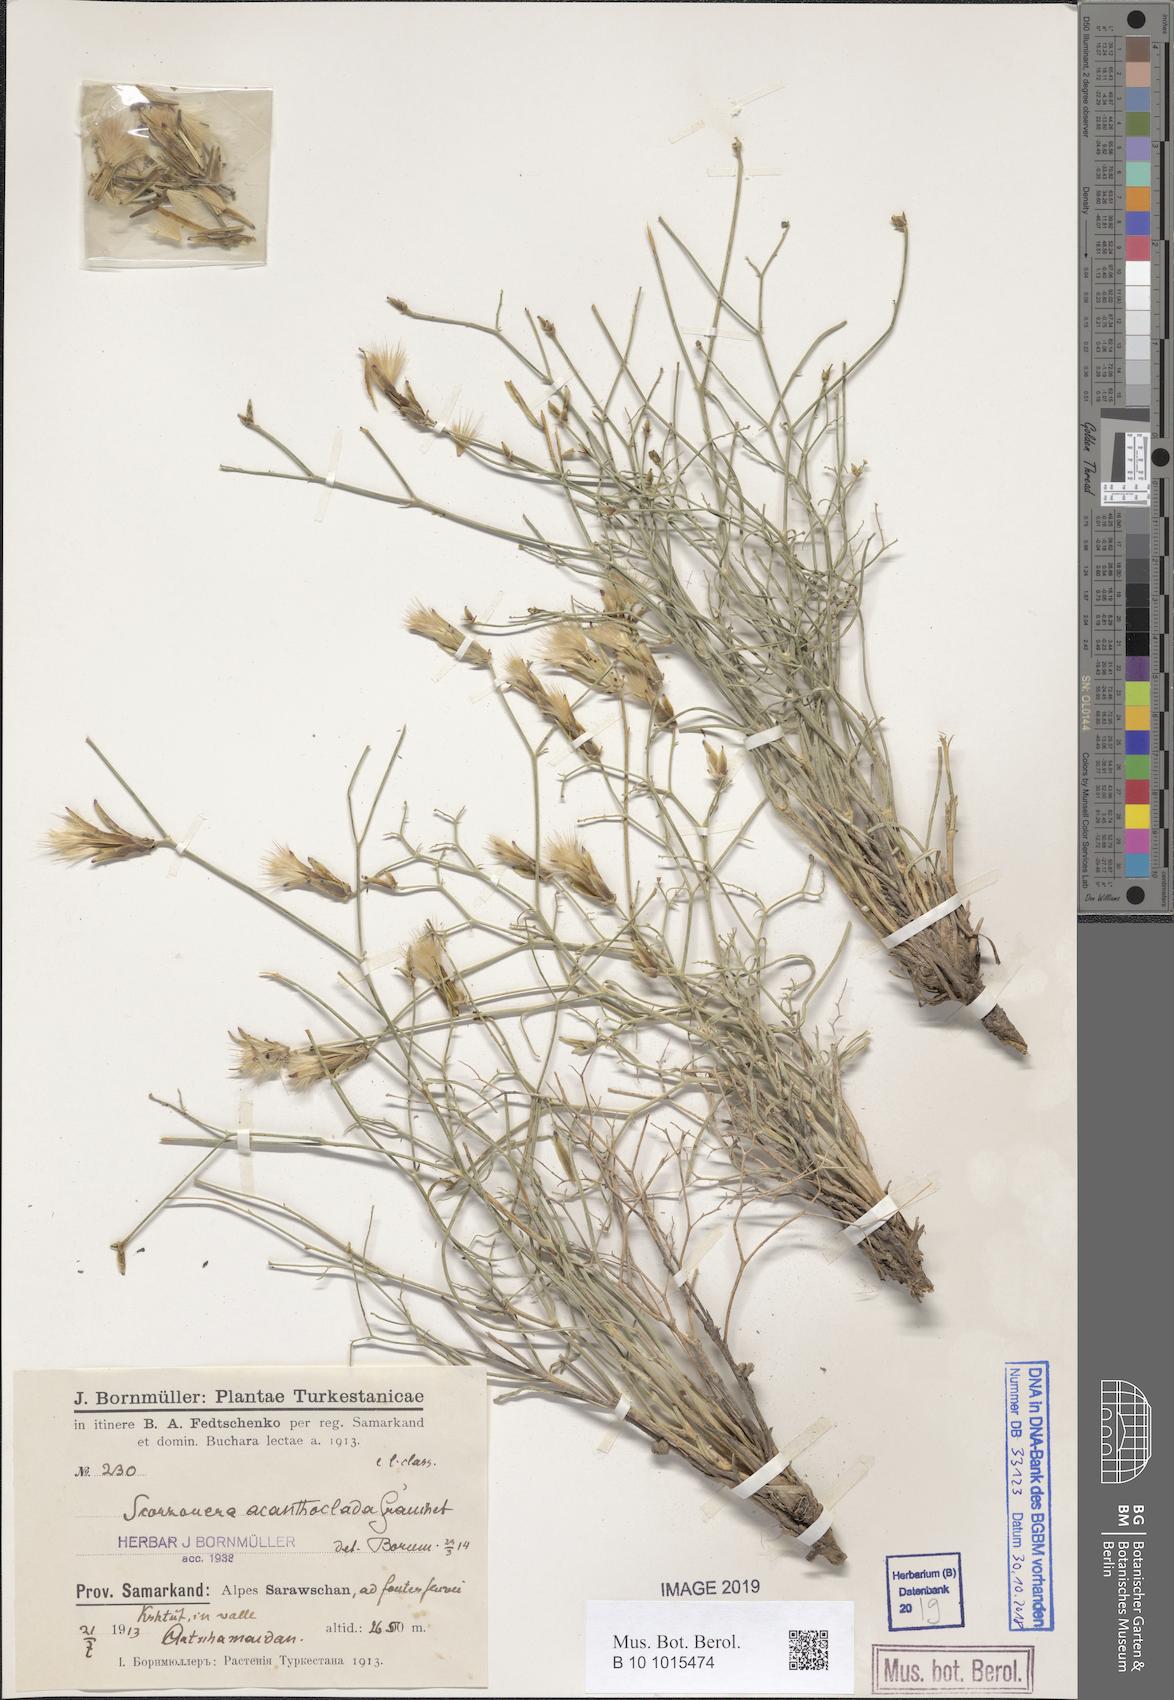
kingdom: Plantae
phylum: Tracheophyta
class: Magnoliopsida
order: Asterales
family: Asteraceae
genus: Ramaliella
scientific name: Ramaliella acanthoclada
